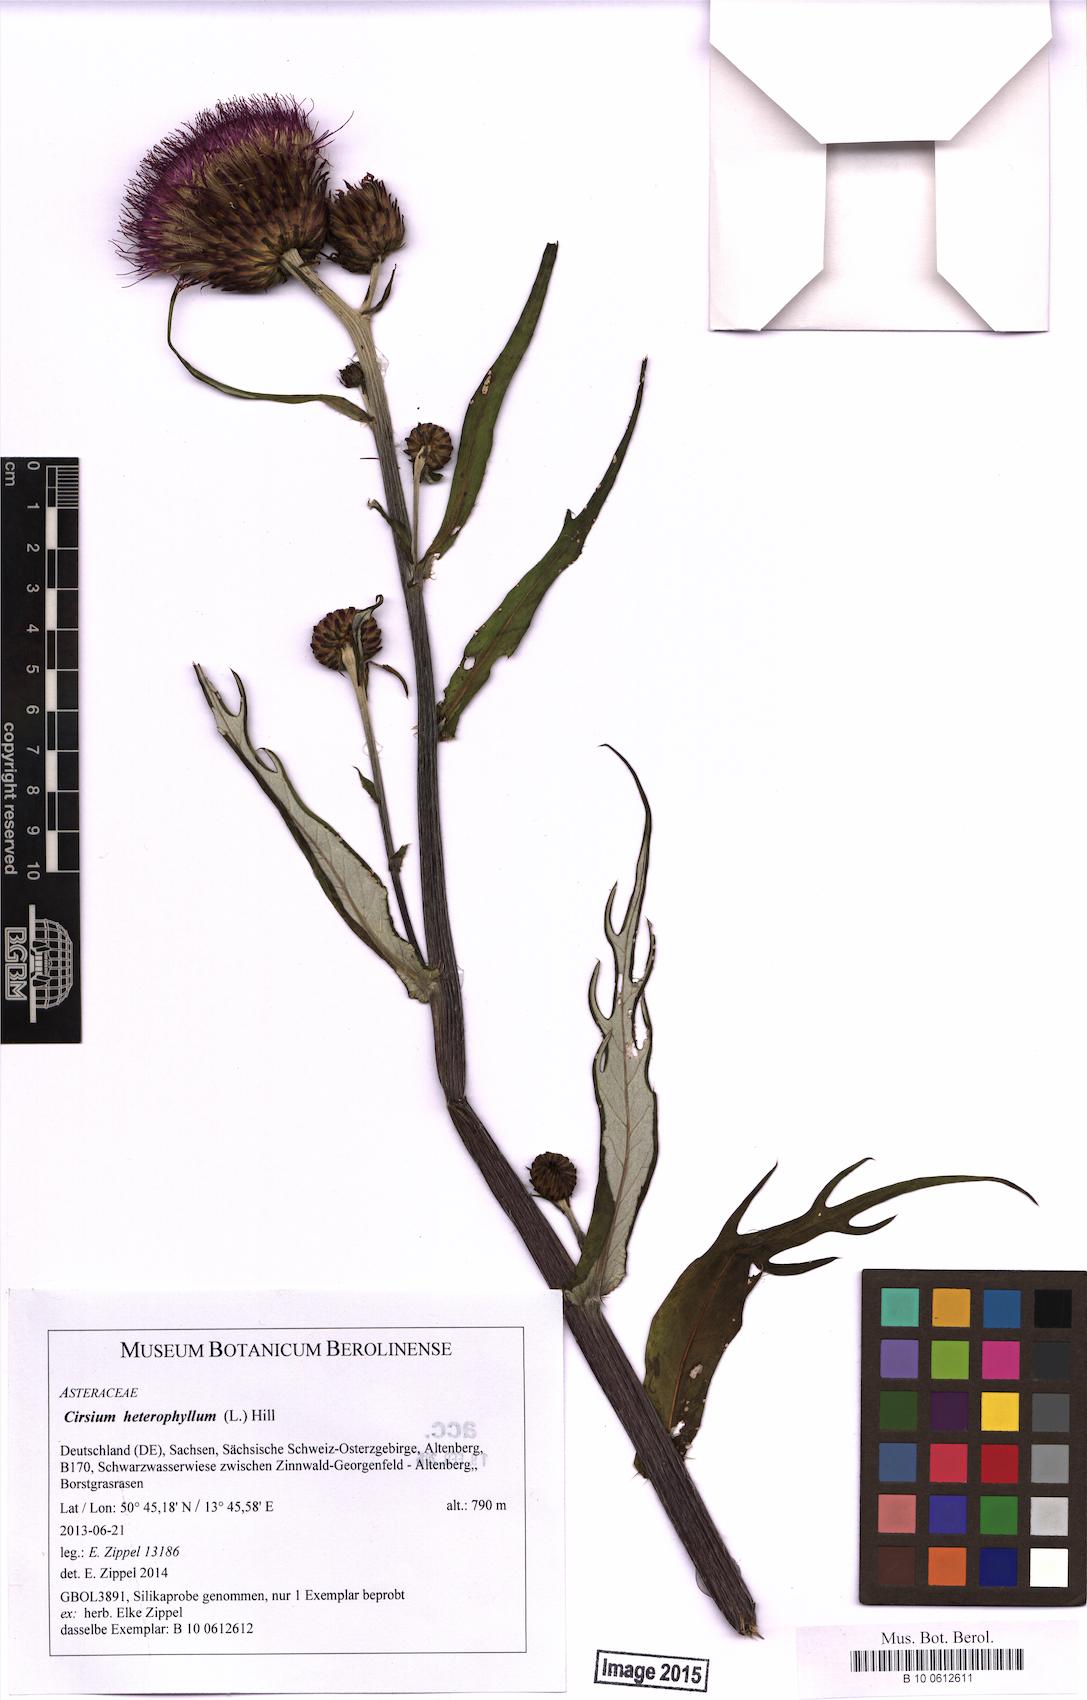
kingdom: Plantae
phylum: Tracheophyta
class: Magnoliopsida
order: Asterales
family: Asteraceae
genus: Cirsium
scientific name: Cirsium heterophyllum
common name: Melancholy thistle
